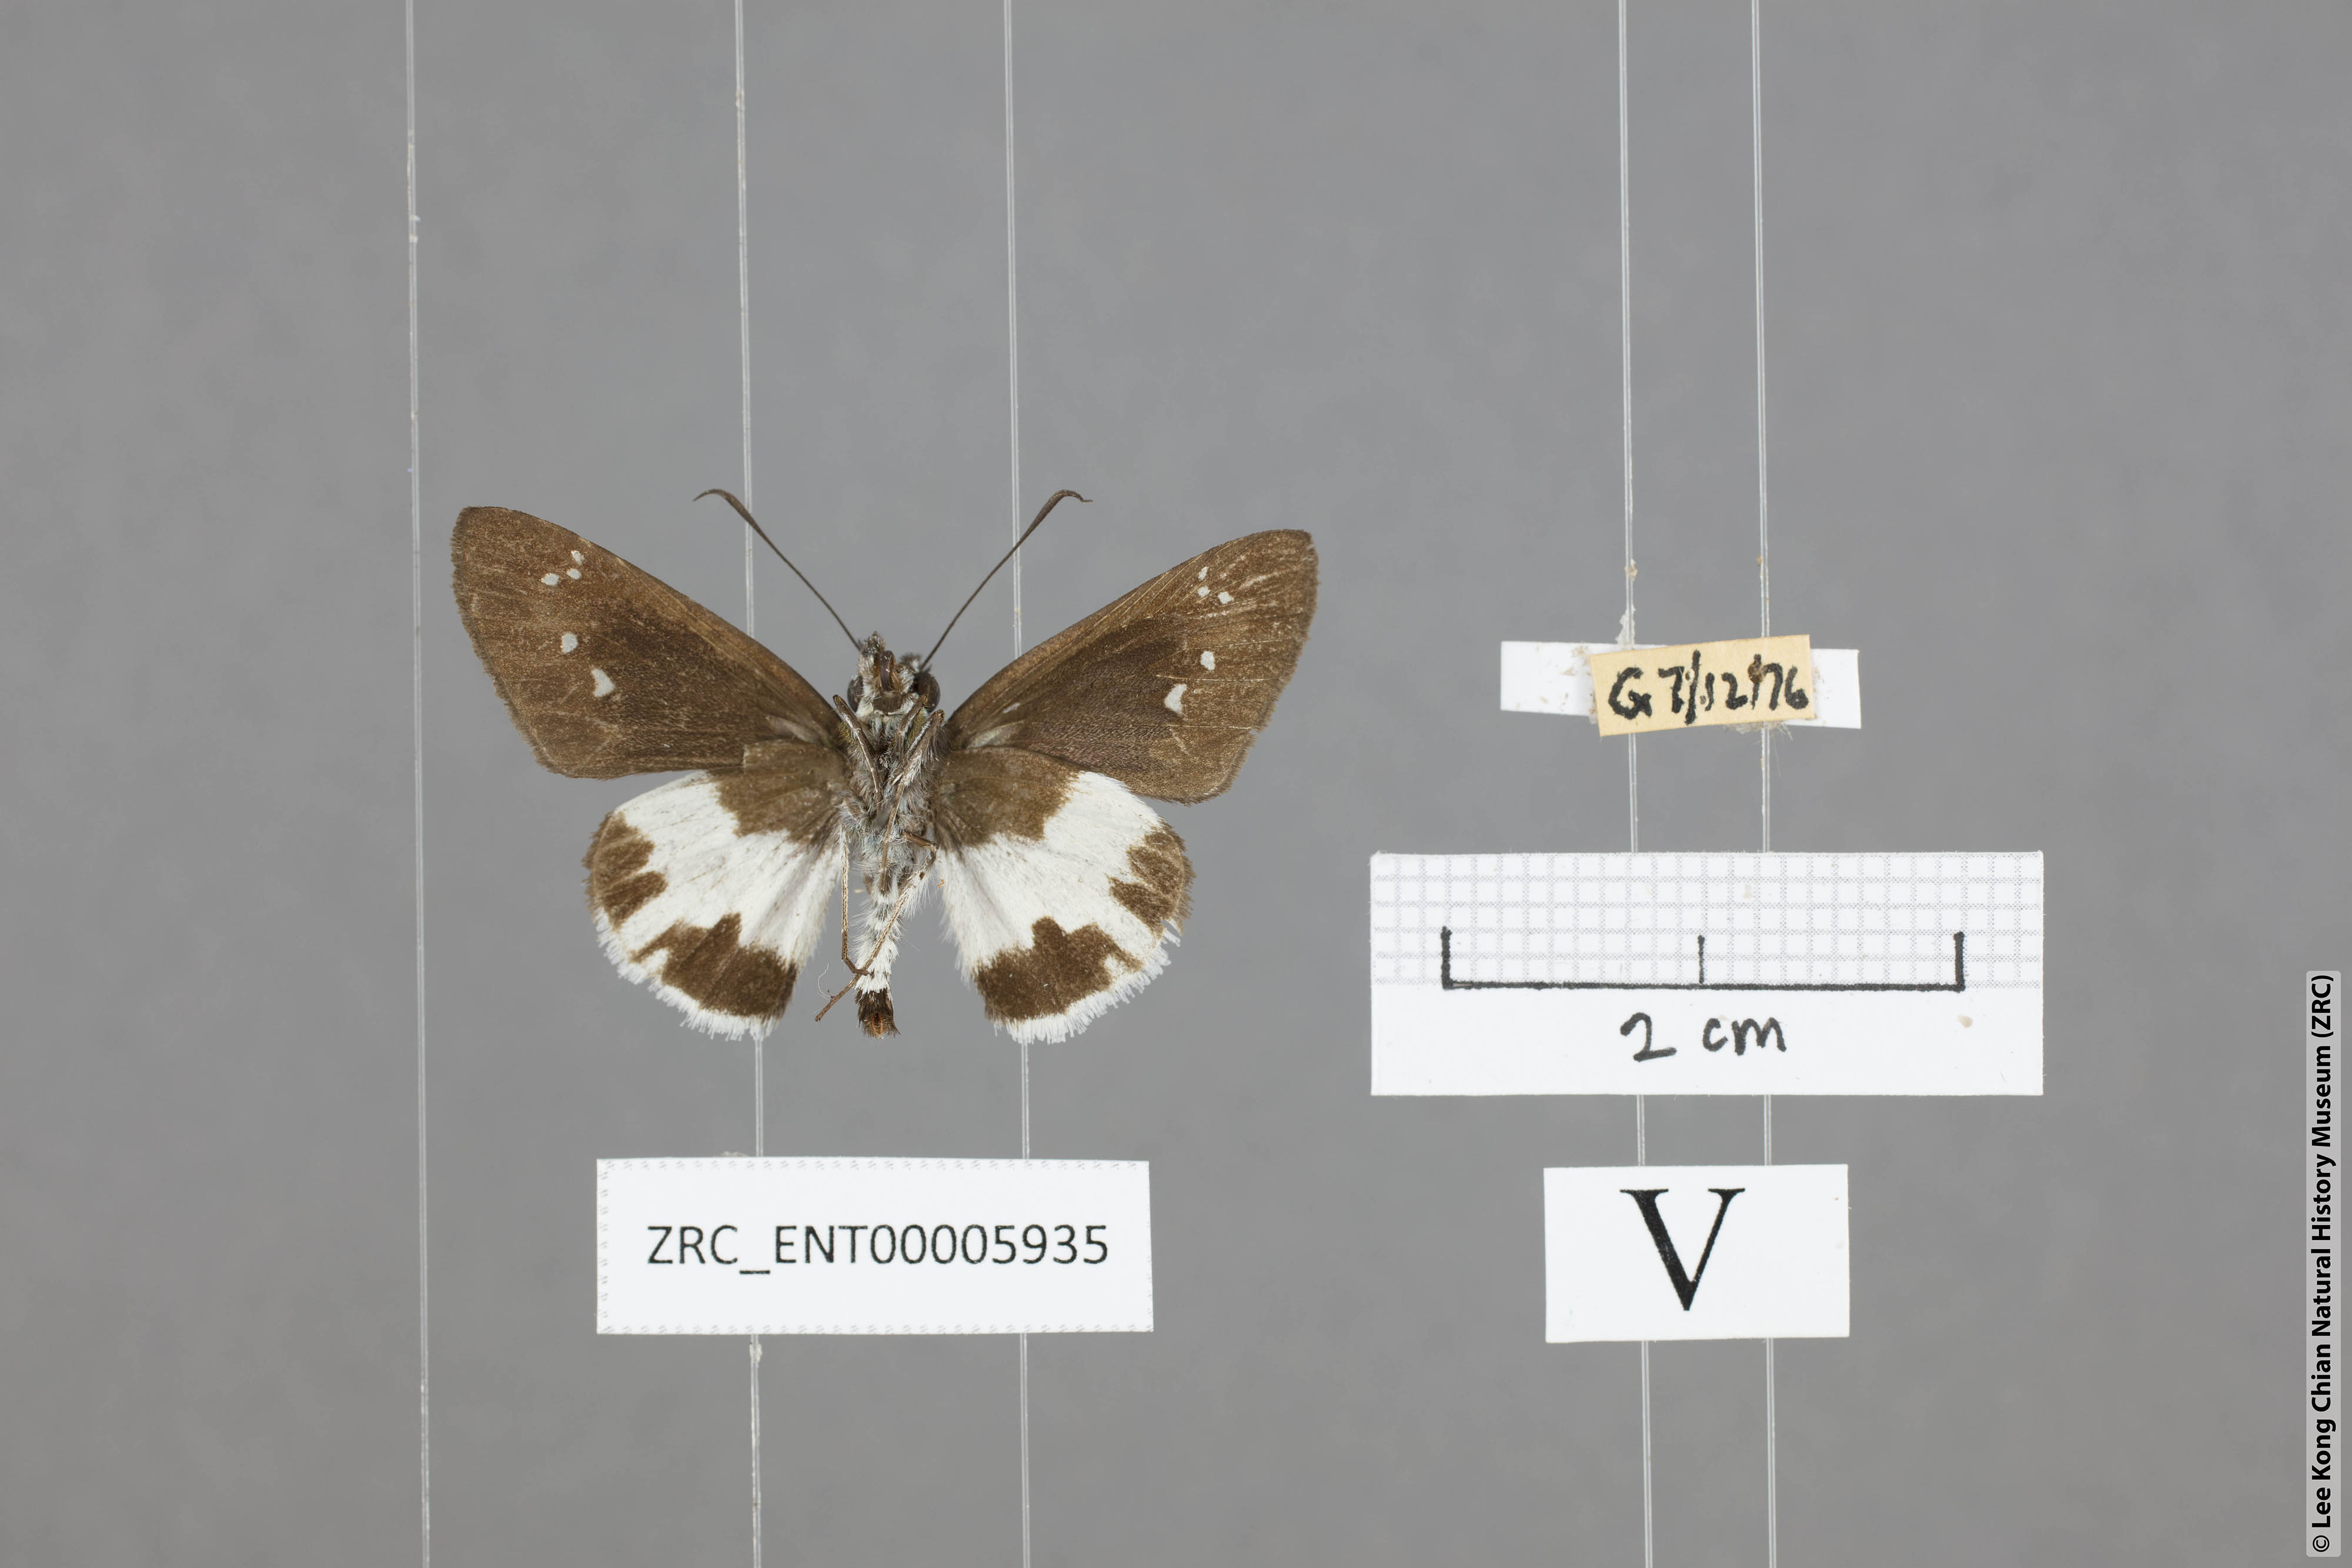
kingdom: Animalia
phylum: Arthropoda
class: Insecta
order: Lepidoptera
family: Hesperiidae
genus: Acerbas
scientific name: Acerbas anthea
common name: White palmer
